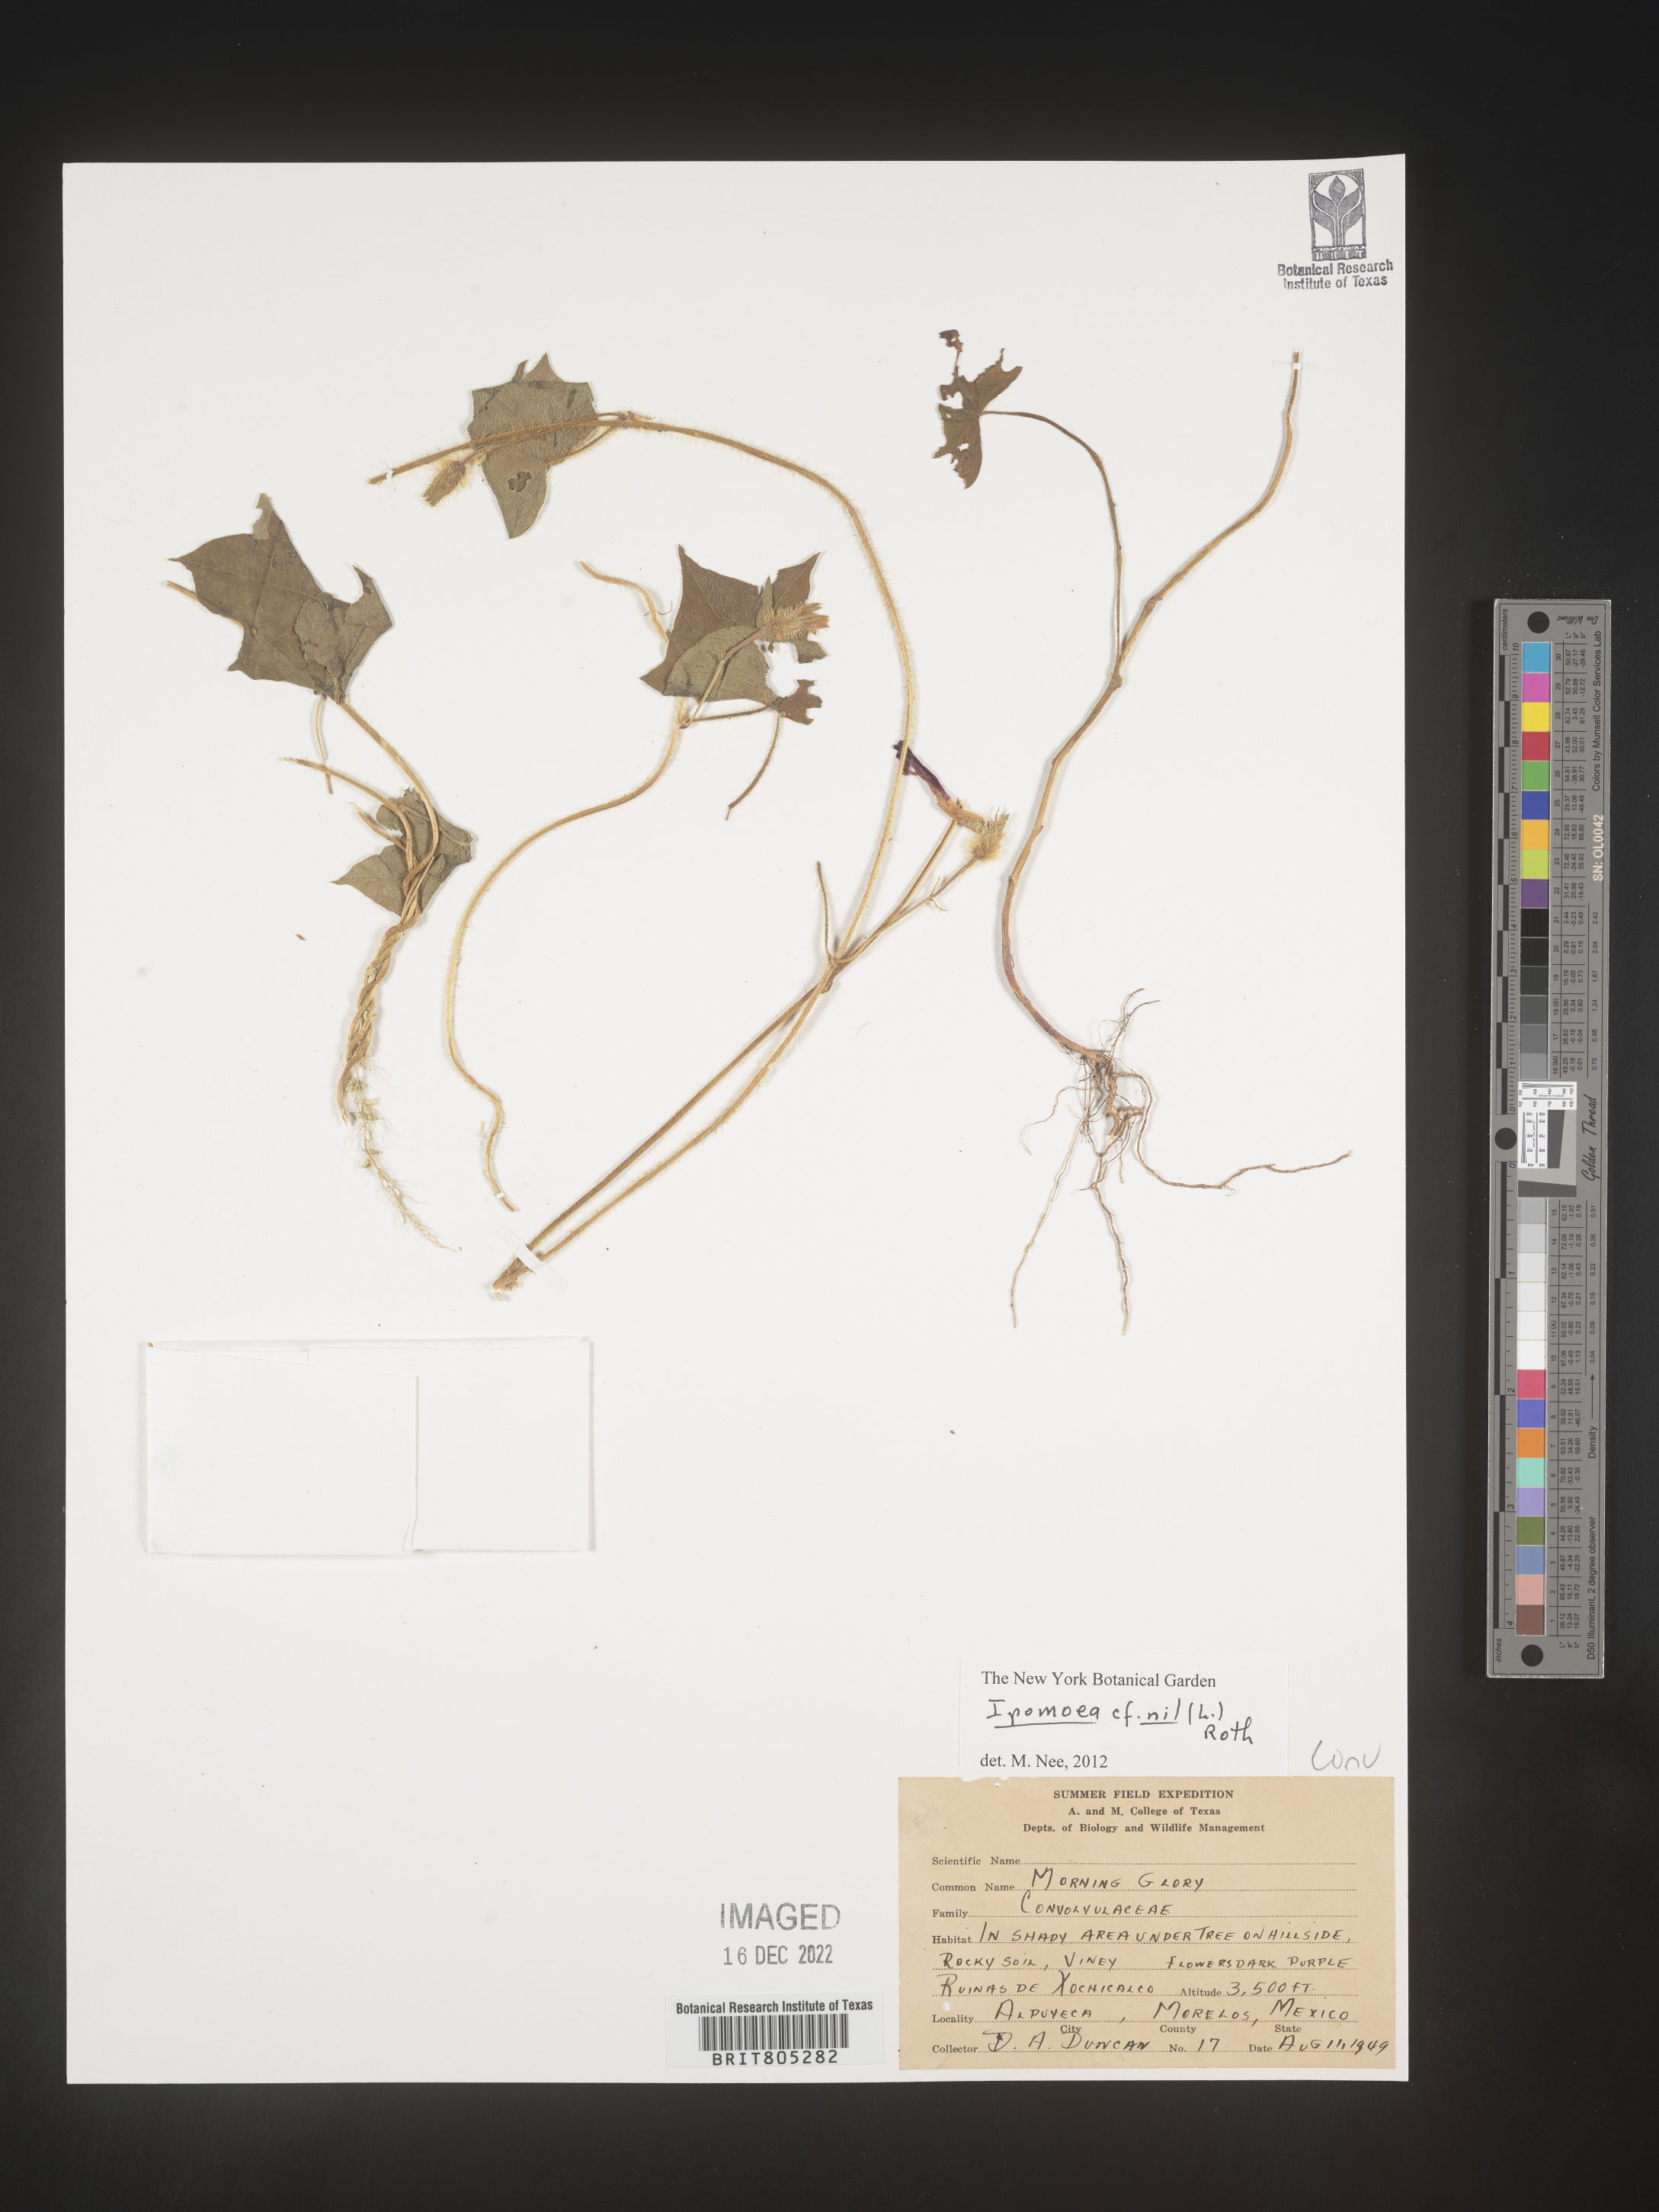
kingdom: Plantae
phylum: Tracheophyta
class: Magnoliopsida
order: Solanales
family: Convolvulaceae
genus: Ipomoea
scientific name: Ipomoea
